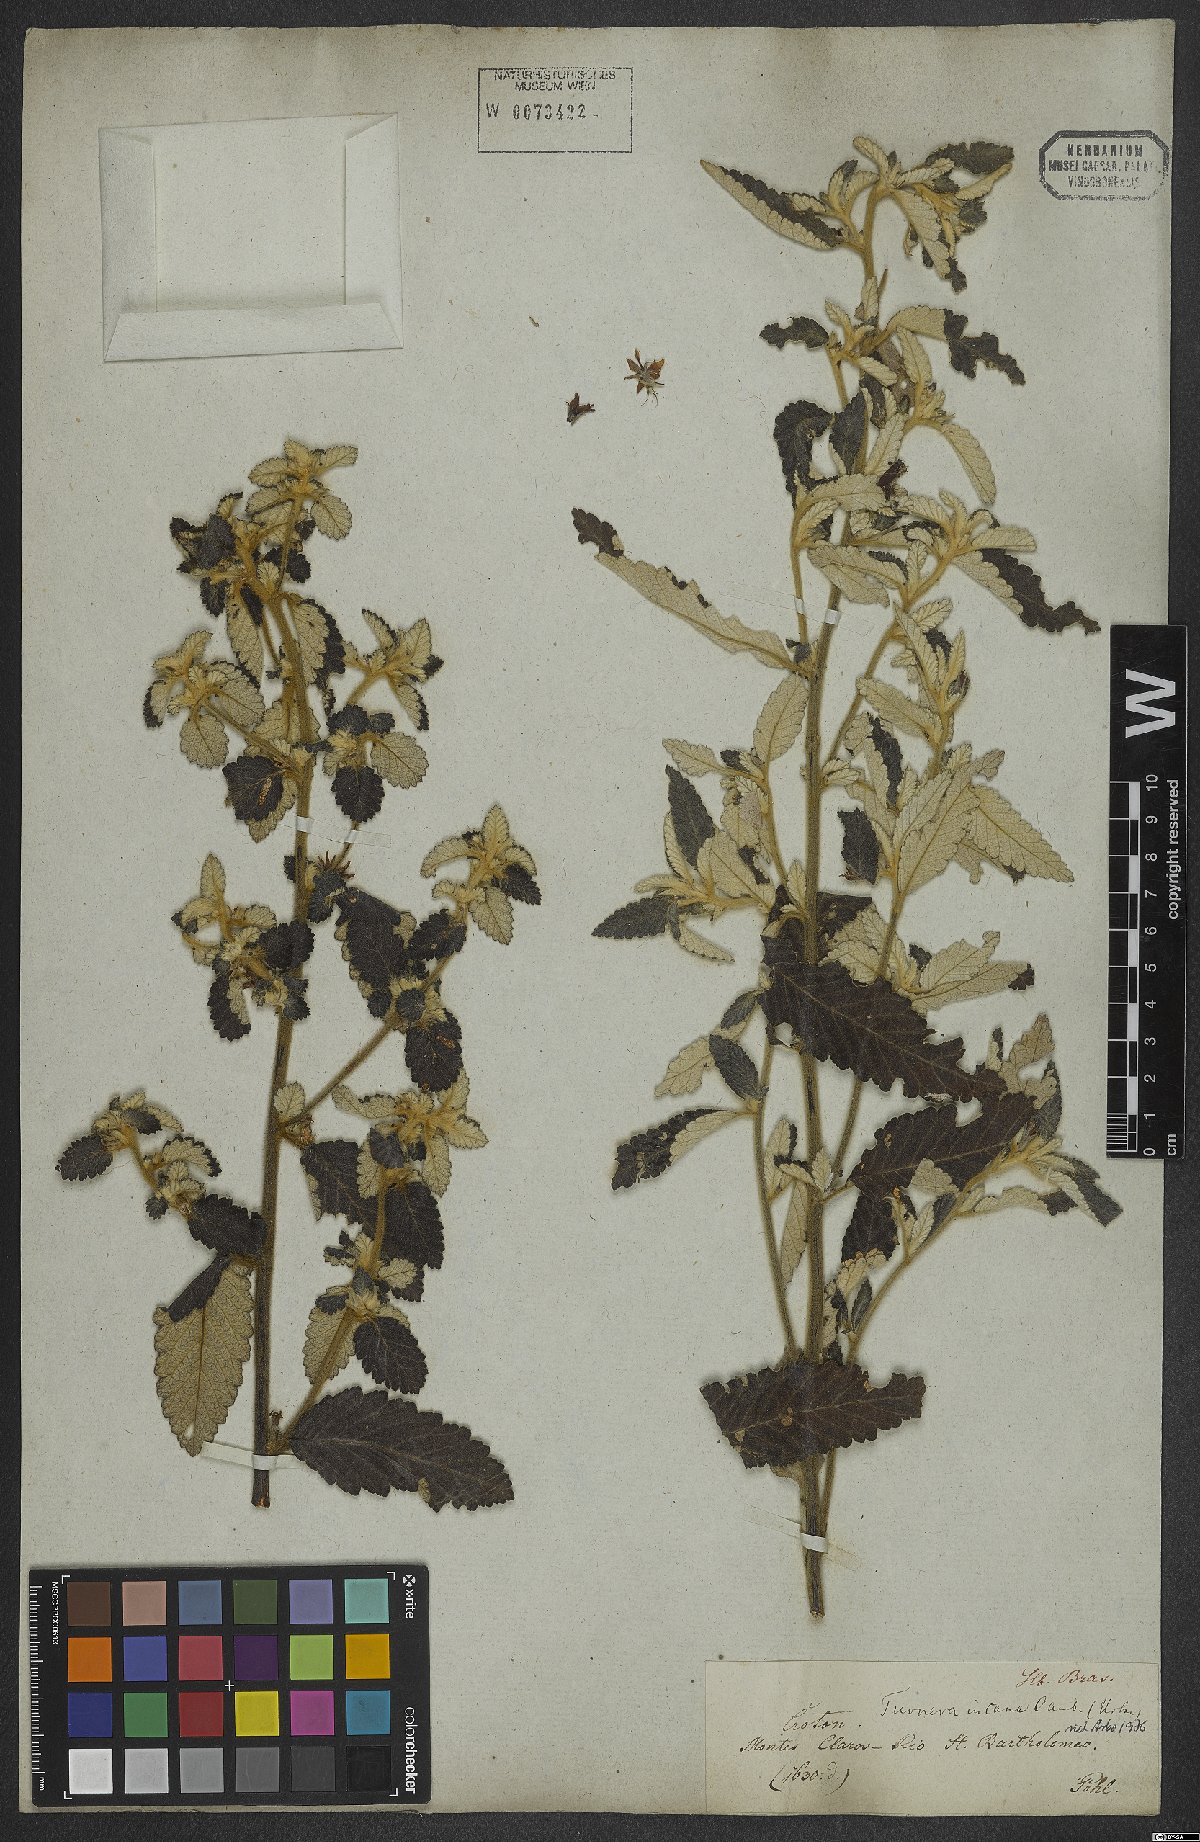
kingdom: Plantae
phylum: Tracheophyta
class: Magnoliopsida
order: Malpighiales
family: Turneraceae
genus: Turnera
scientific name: Turnera incana
